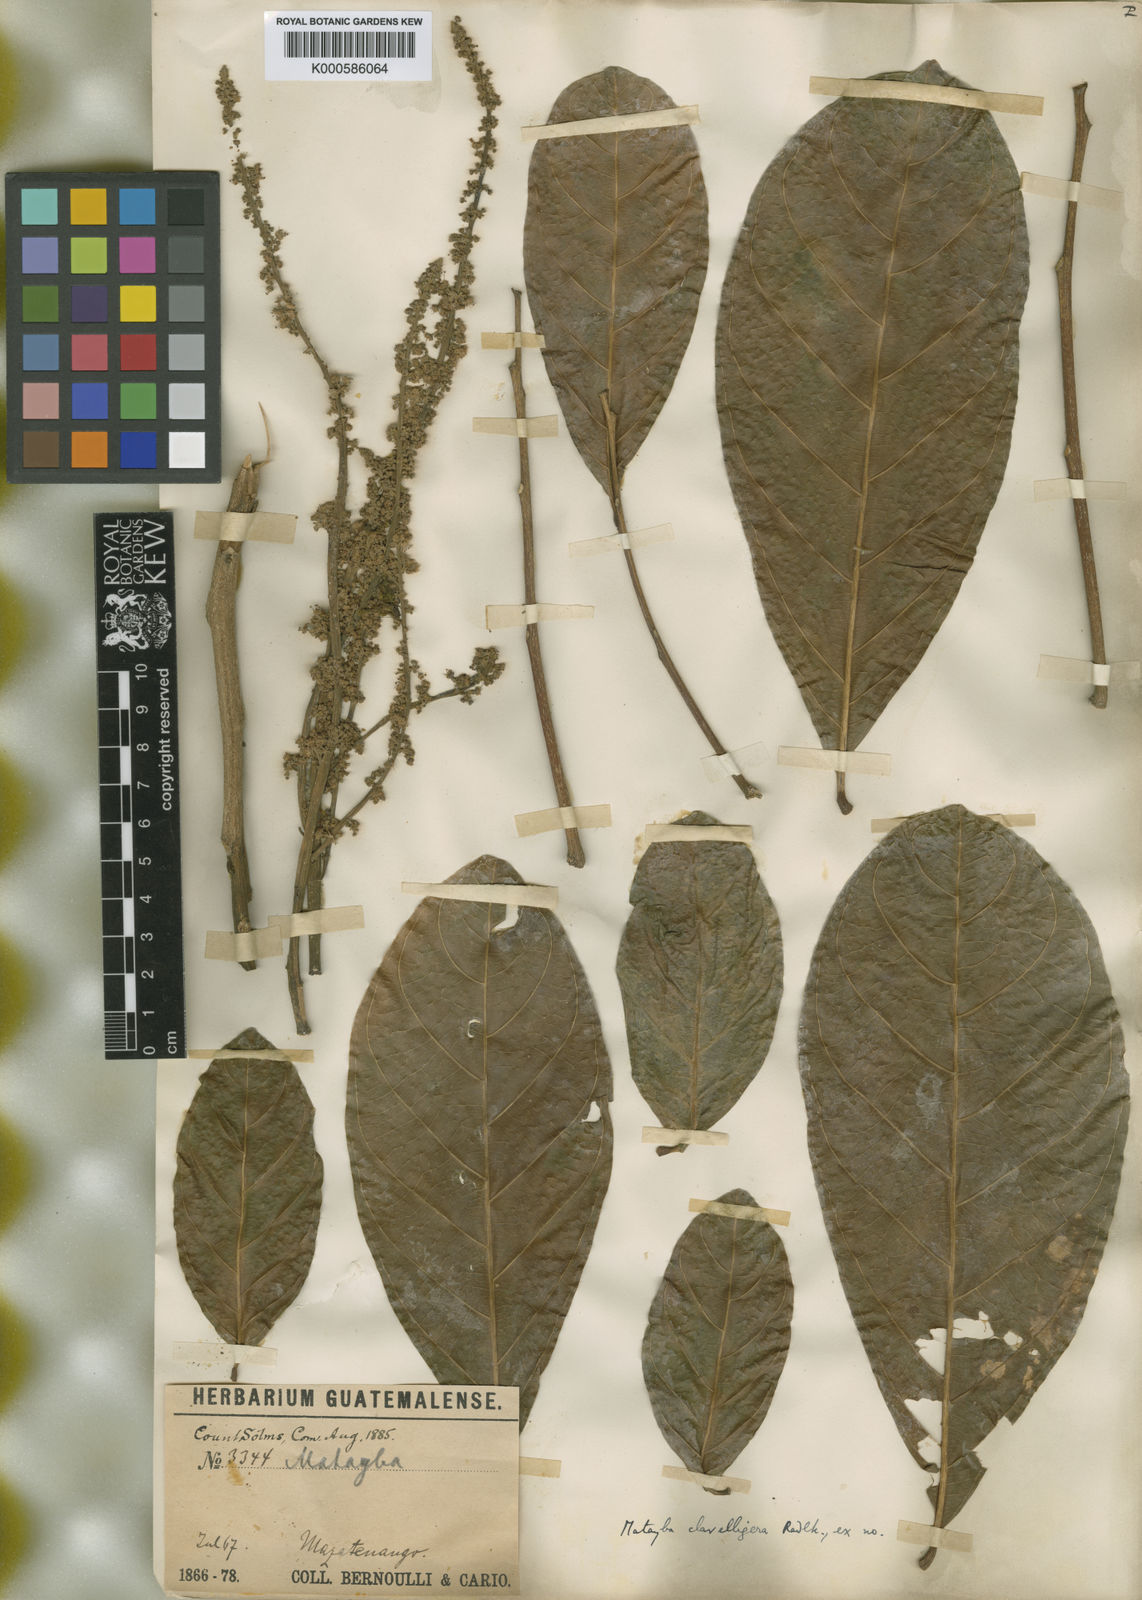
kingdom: Plantae
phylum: Tracheophyta
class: Magnoliopsida
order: Sapindales
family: Sapindaceae
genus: Matayba
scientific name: Matayba clavelligera
